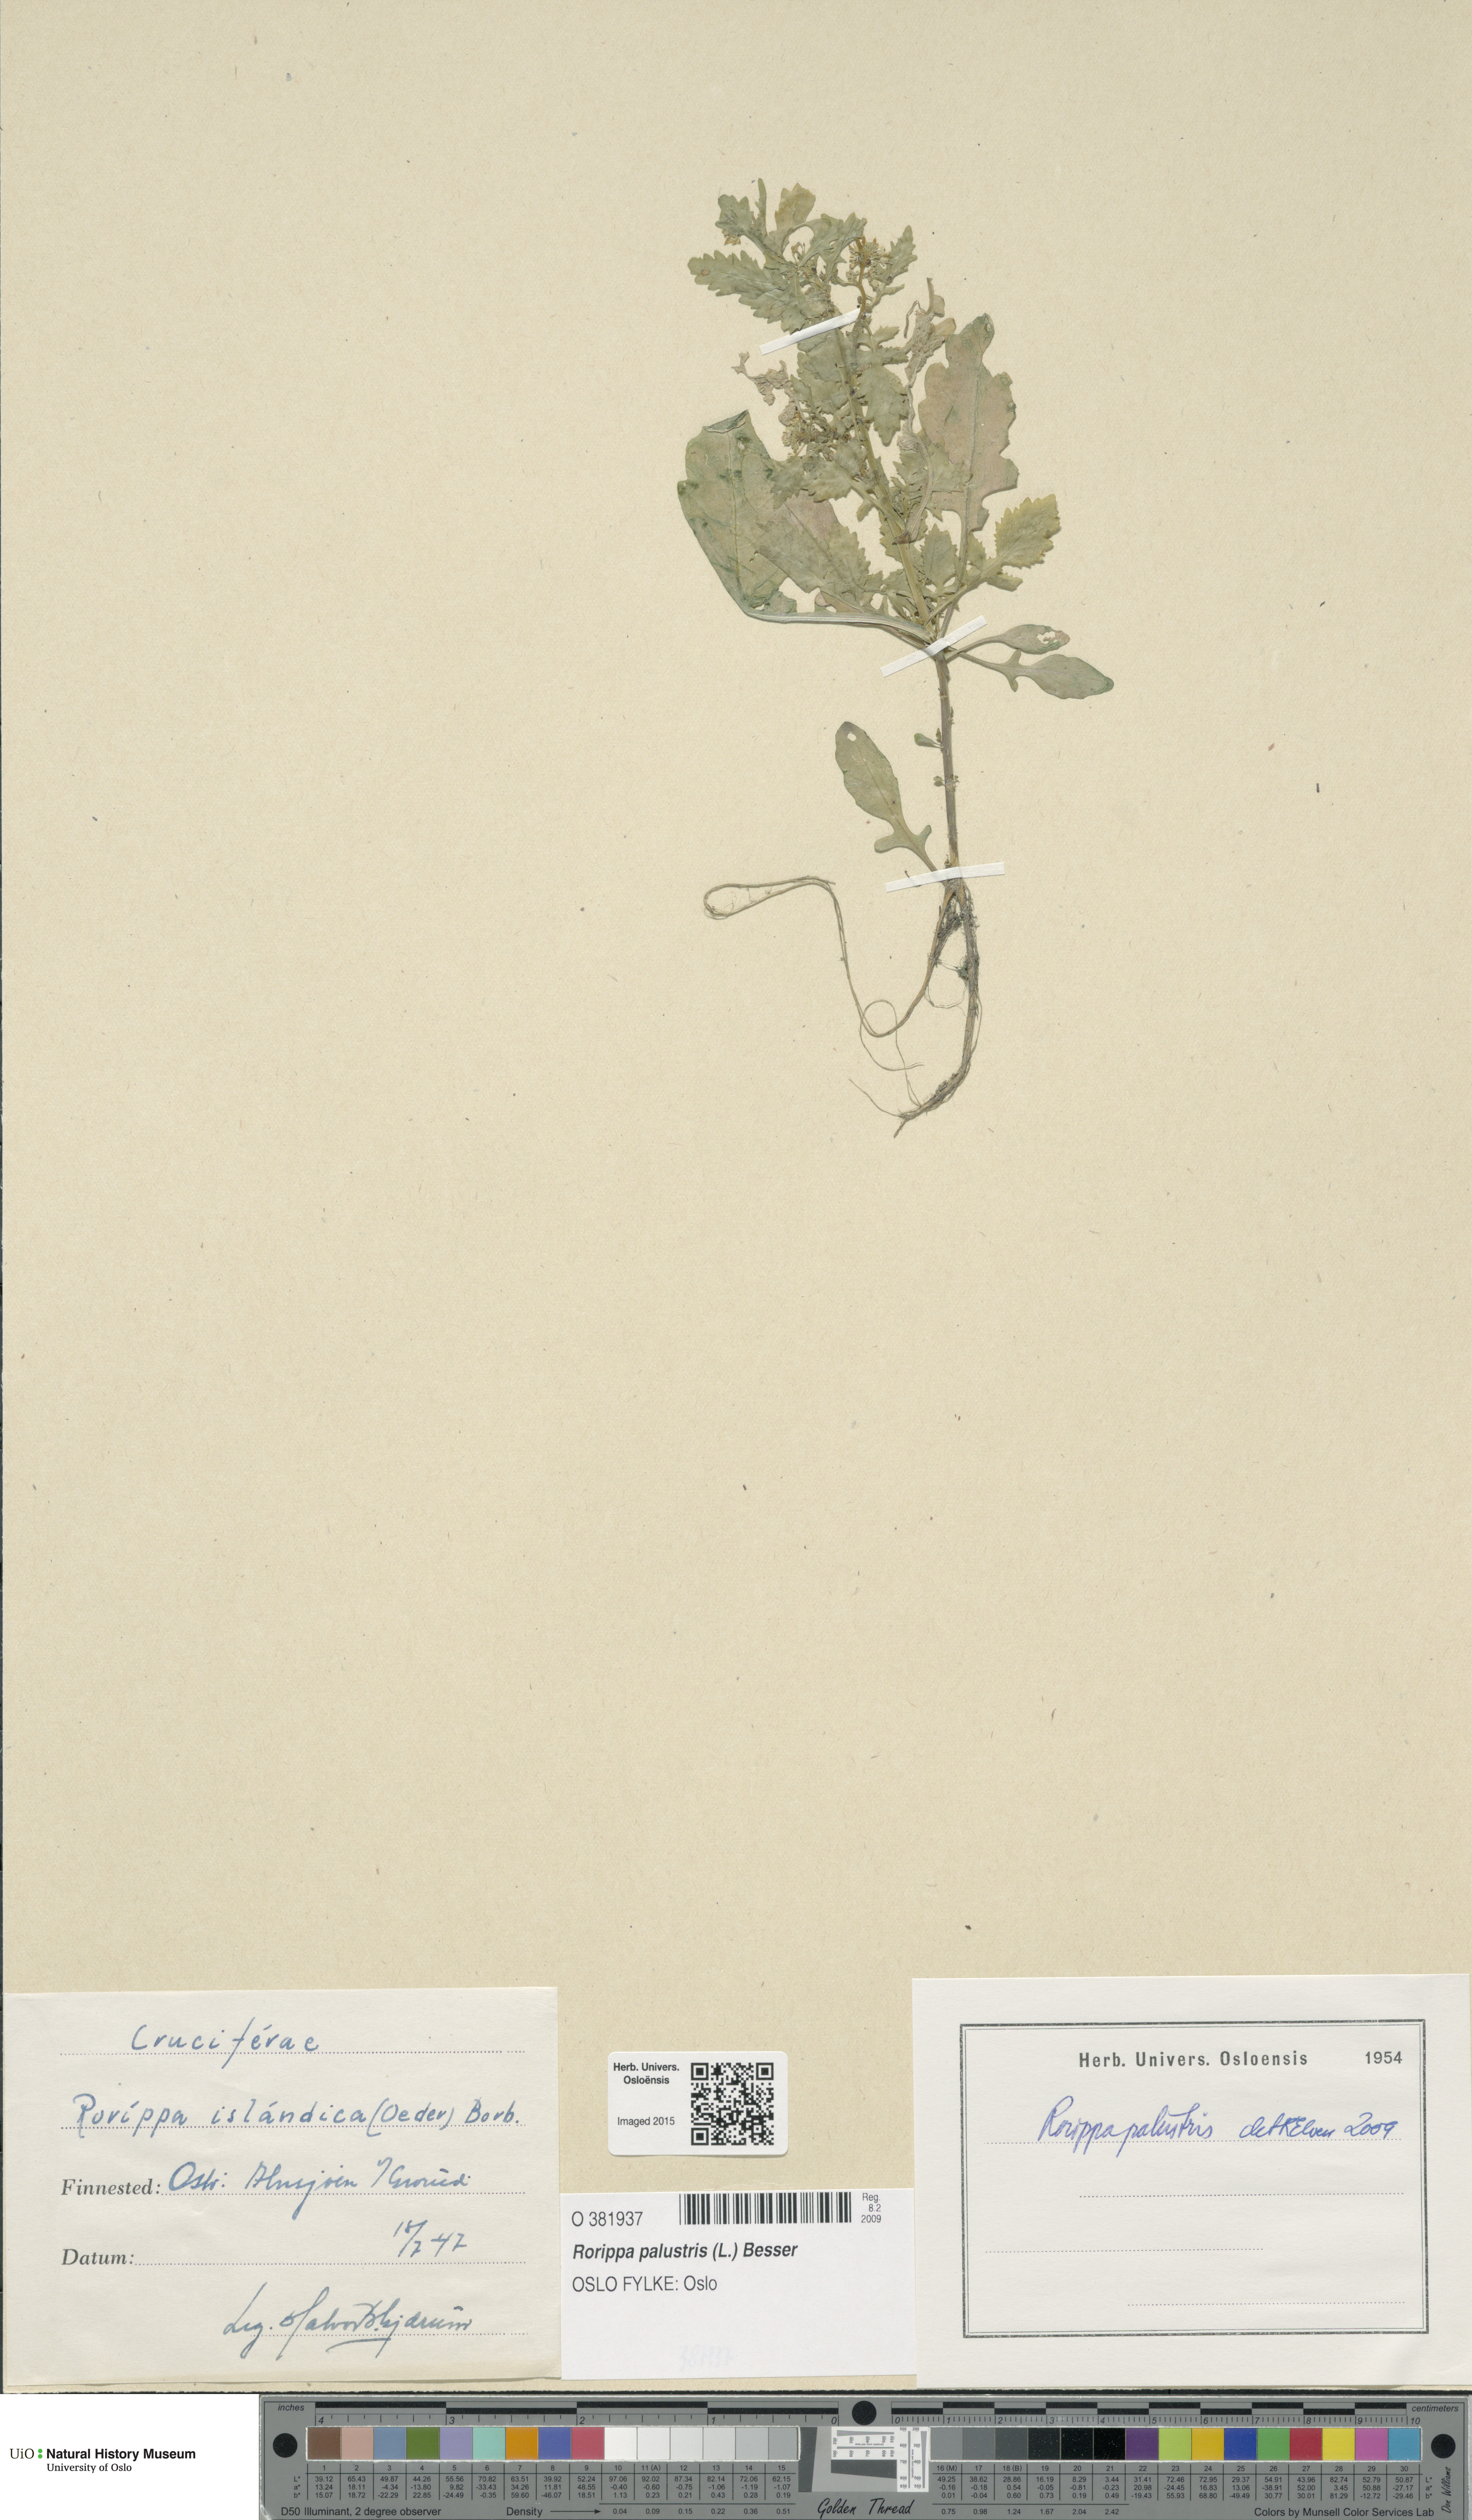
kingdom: Plantae
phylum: Tracheophyta
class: Magnoliopsida
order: Brassicales
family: Brassicaceae
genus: Rorippa
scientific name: Rorippa palustris
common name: Marsh yellow-cress
